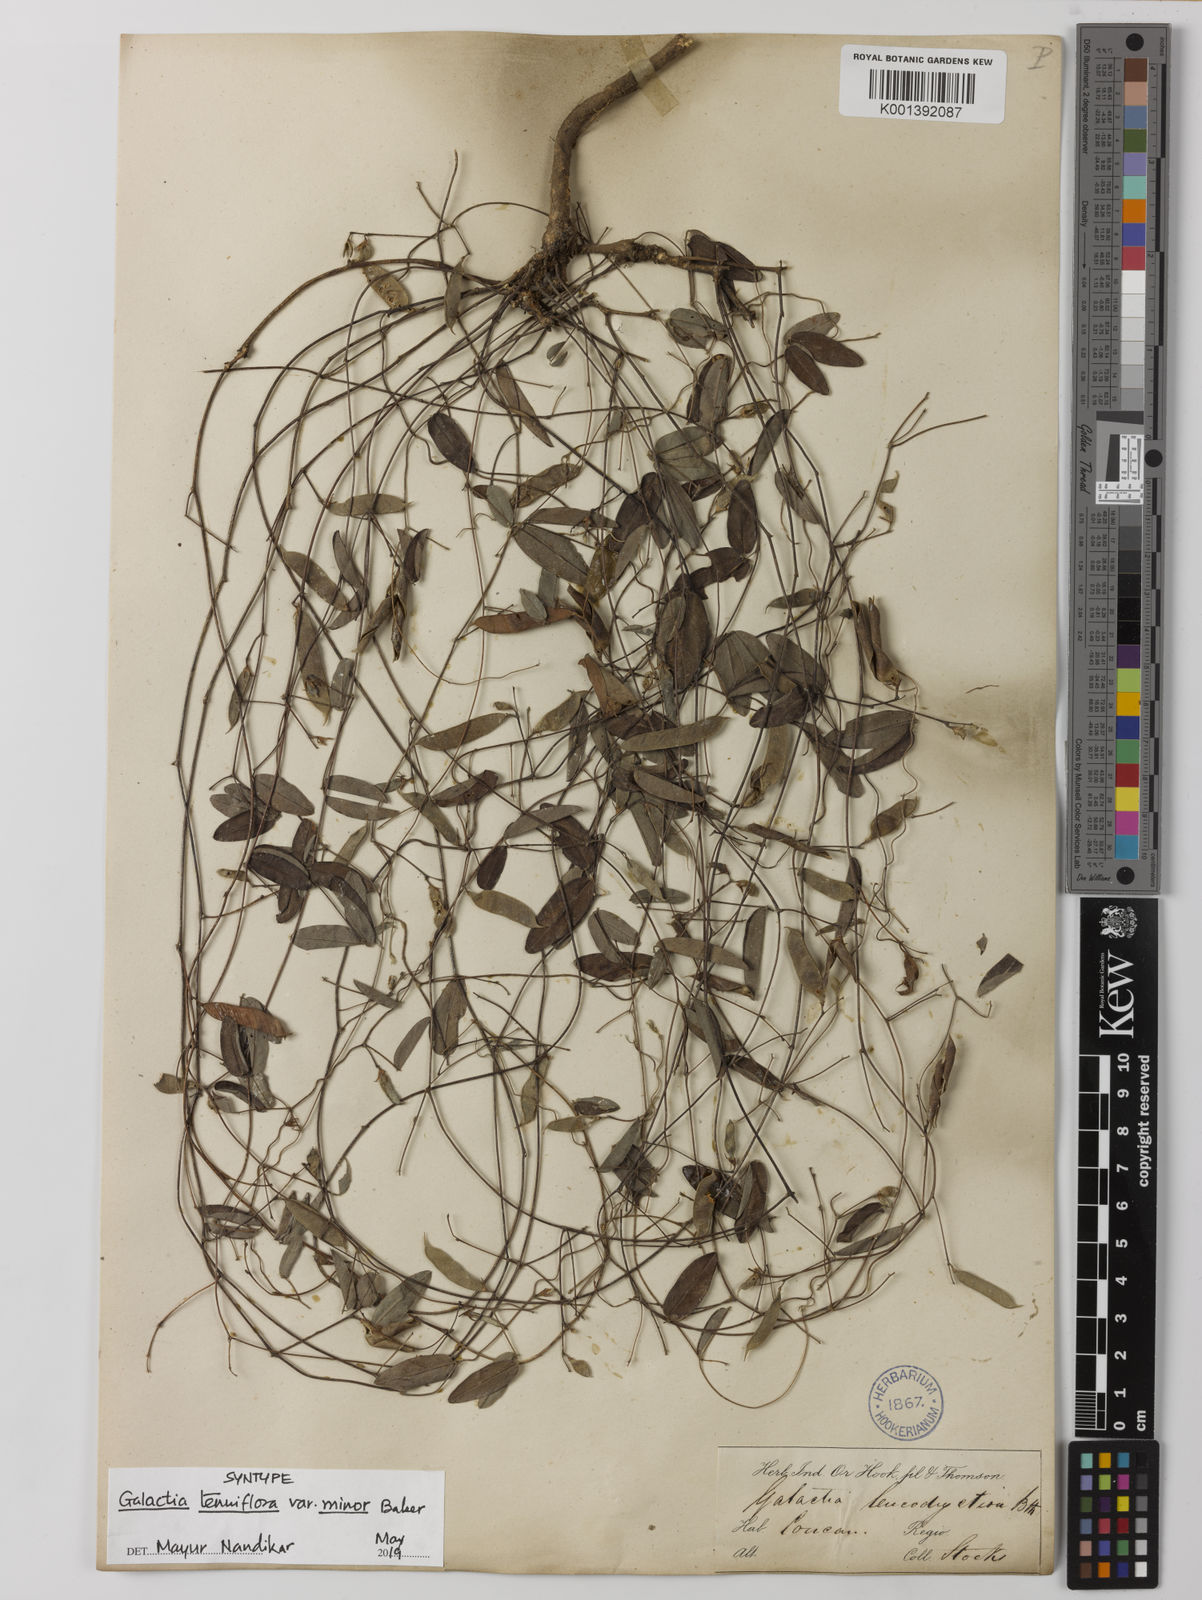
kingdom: Plantae
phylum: Tracheophyta
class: Magnoliopsida
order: Fabales
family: Fabaceae
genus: Galactia
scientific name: Galactia
